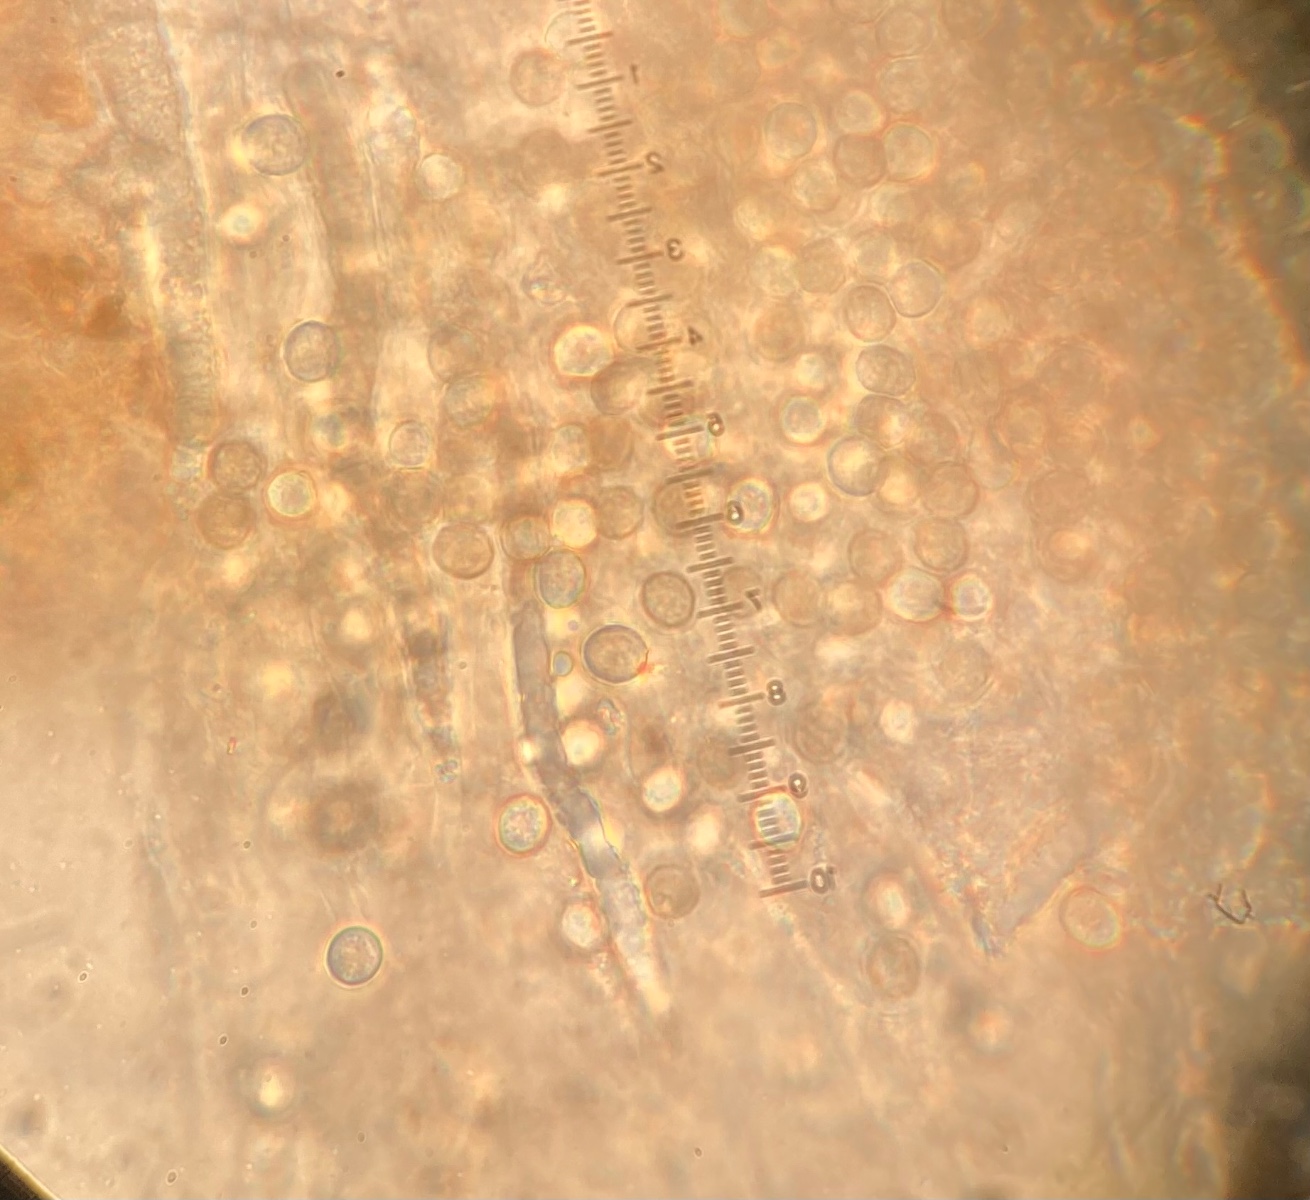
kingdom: Fungi
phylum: Basidiomycota
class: Agaricomycetes
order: Russulales
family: Peniophoraceae
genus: Gloiothele
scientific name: Gloiothele lactescens
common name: bitter olieskind
